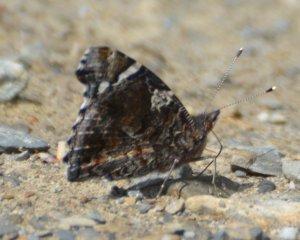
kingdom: Animalia
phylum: Arthropoda
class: Insecta
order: Lepidoptera
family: Nymphalidae
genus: Vanessa
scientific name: Vanessa atalanta
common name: Red Admiral
